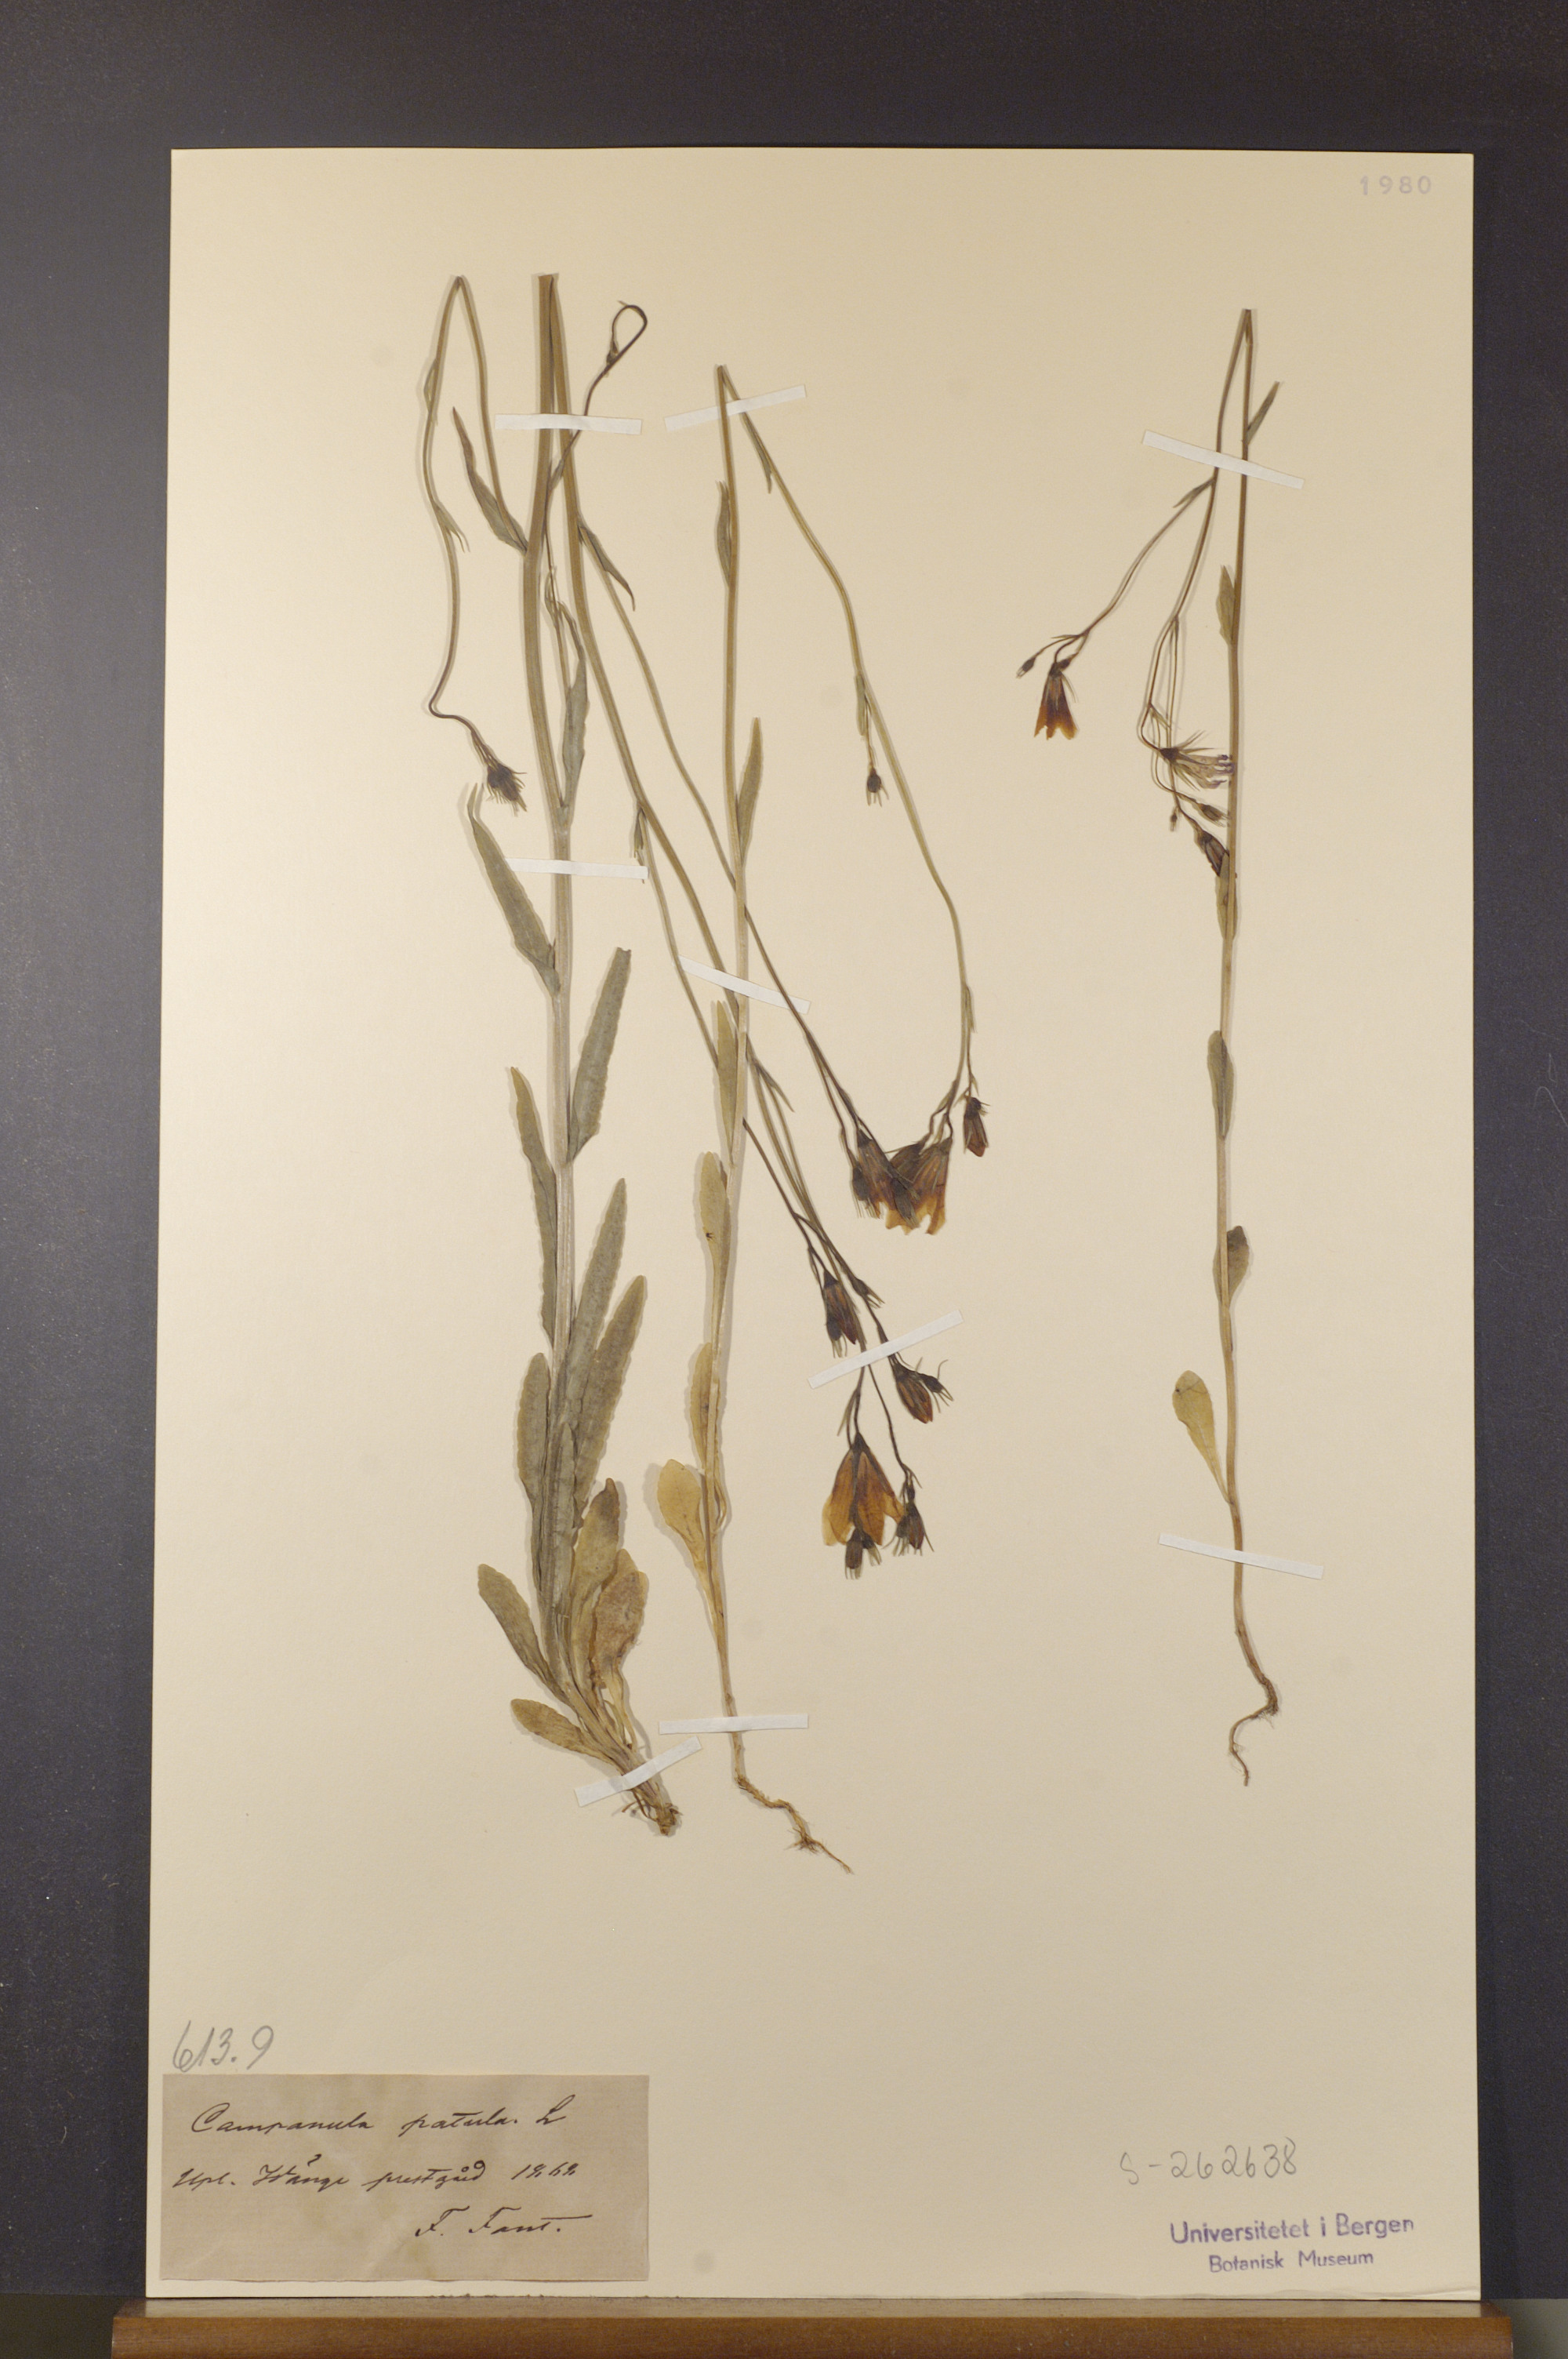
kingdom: Plantae
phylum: Tracheophyta
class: Magnoliopsida
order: Asterales
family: Campanulaceae
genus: Campanula
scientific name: Campanula patula
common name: Spreading bellflower
